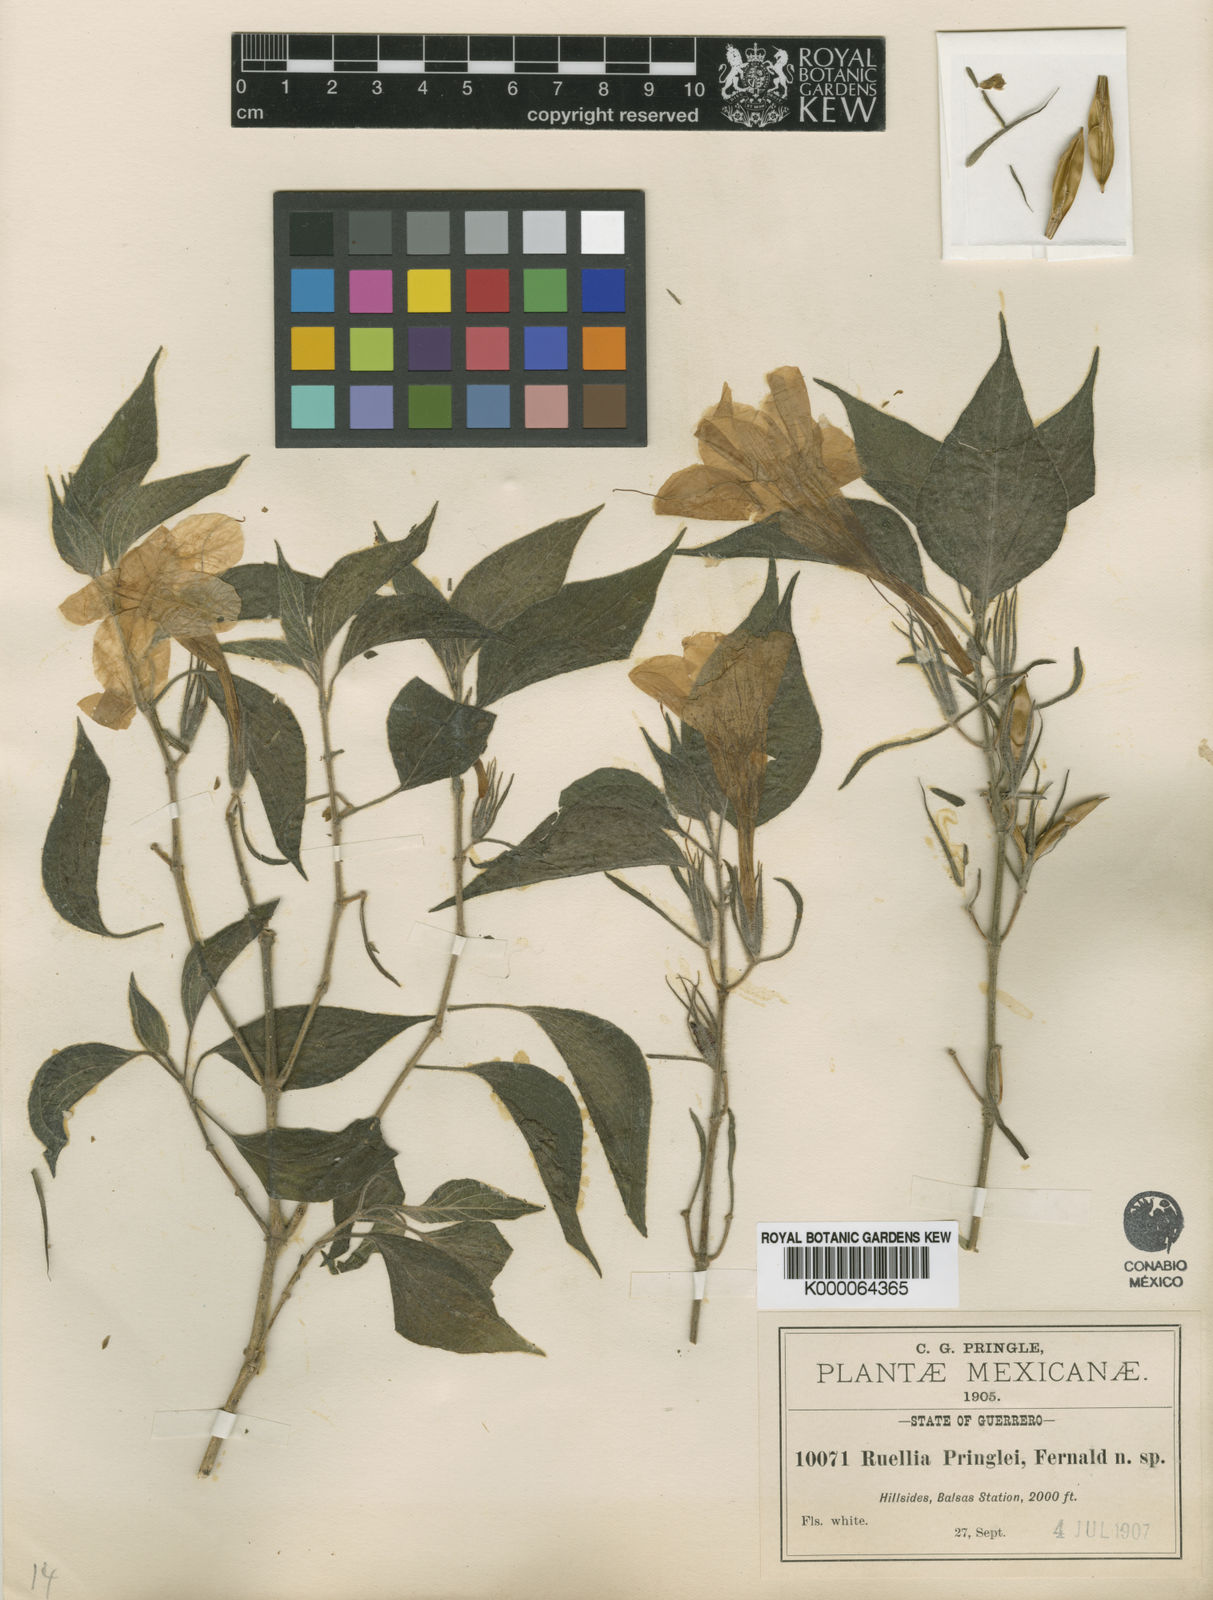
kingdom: Plantae
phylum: Tracheophyta
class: Magnoliopsida
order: Lamiales
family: Acanthaceae
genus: Ruellia
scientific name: Ruellia pringlei
